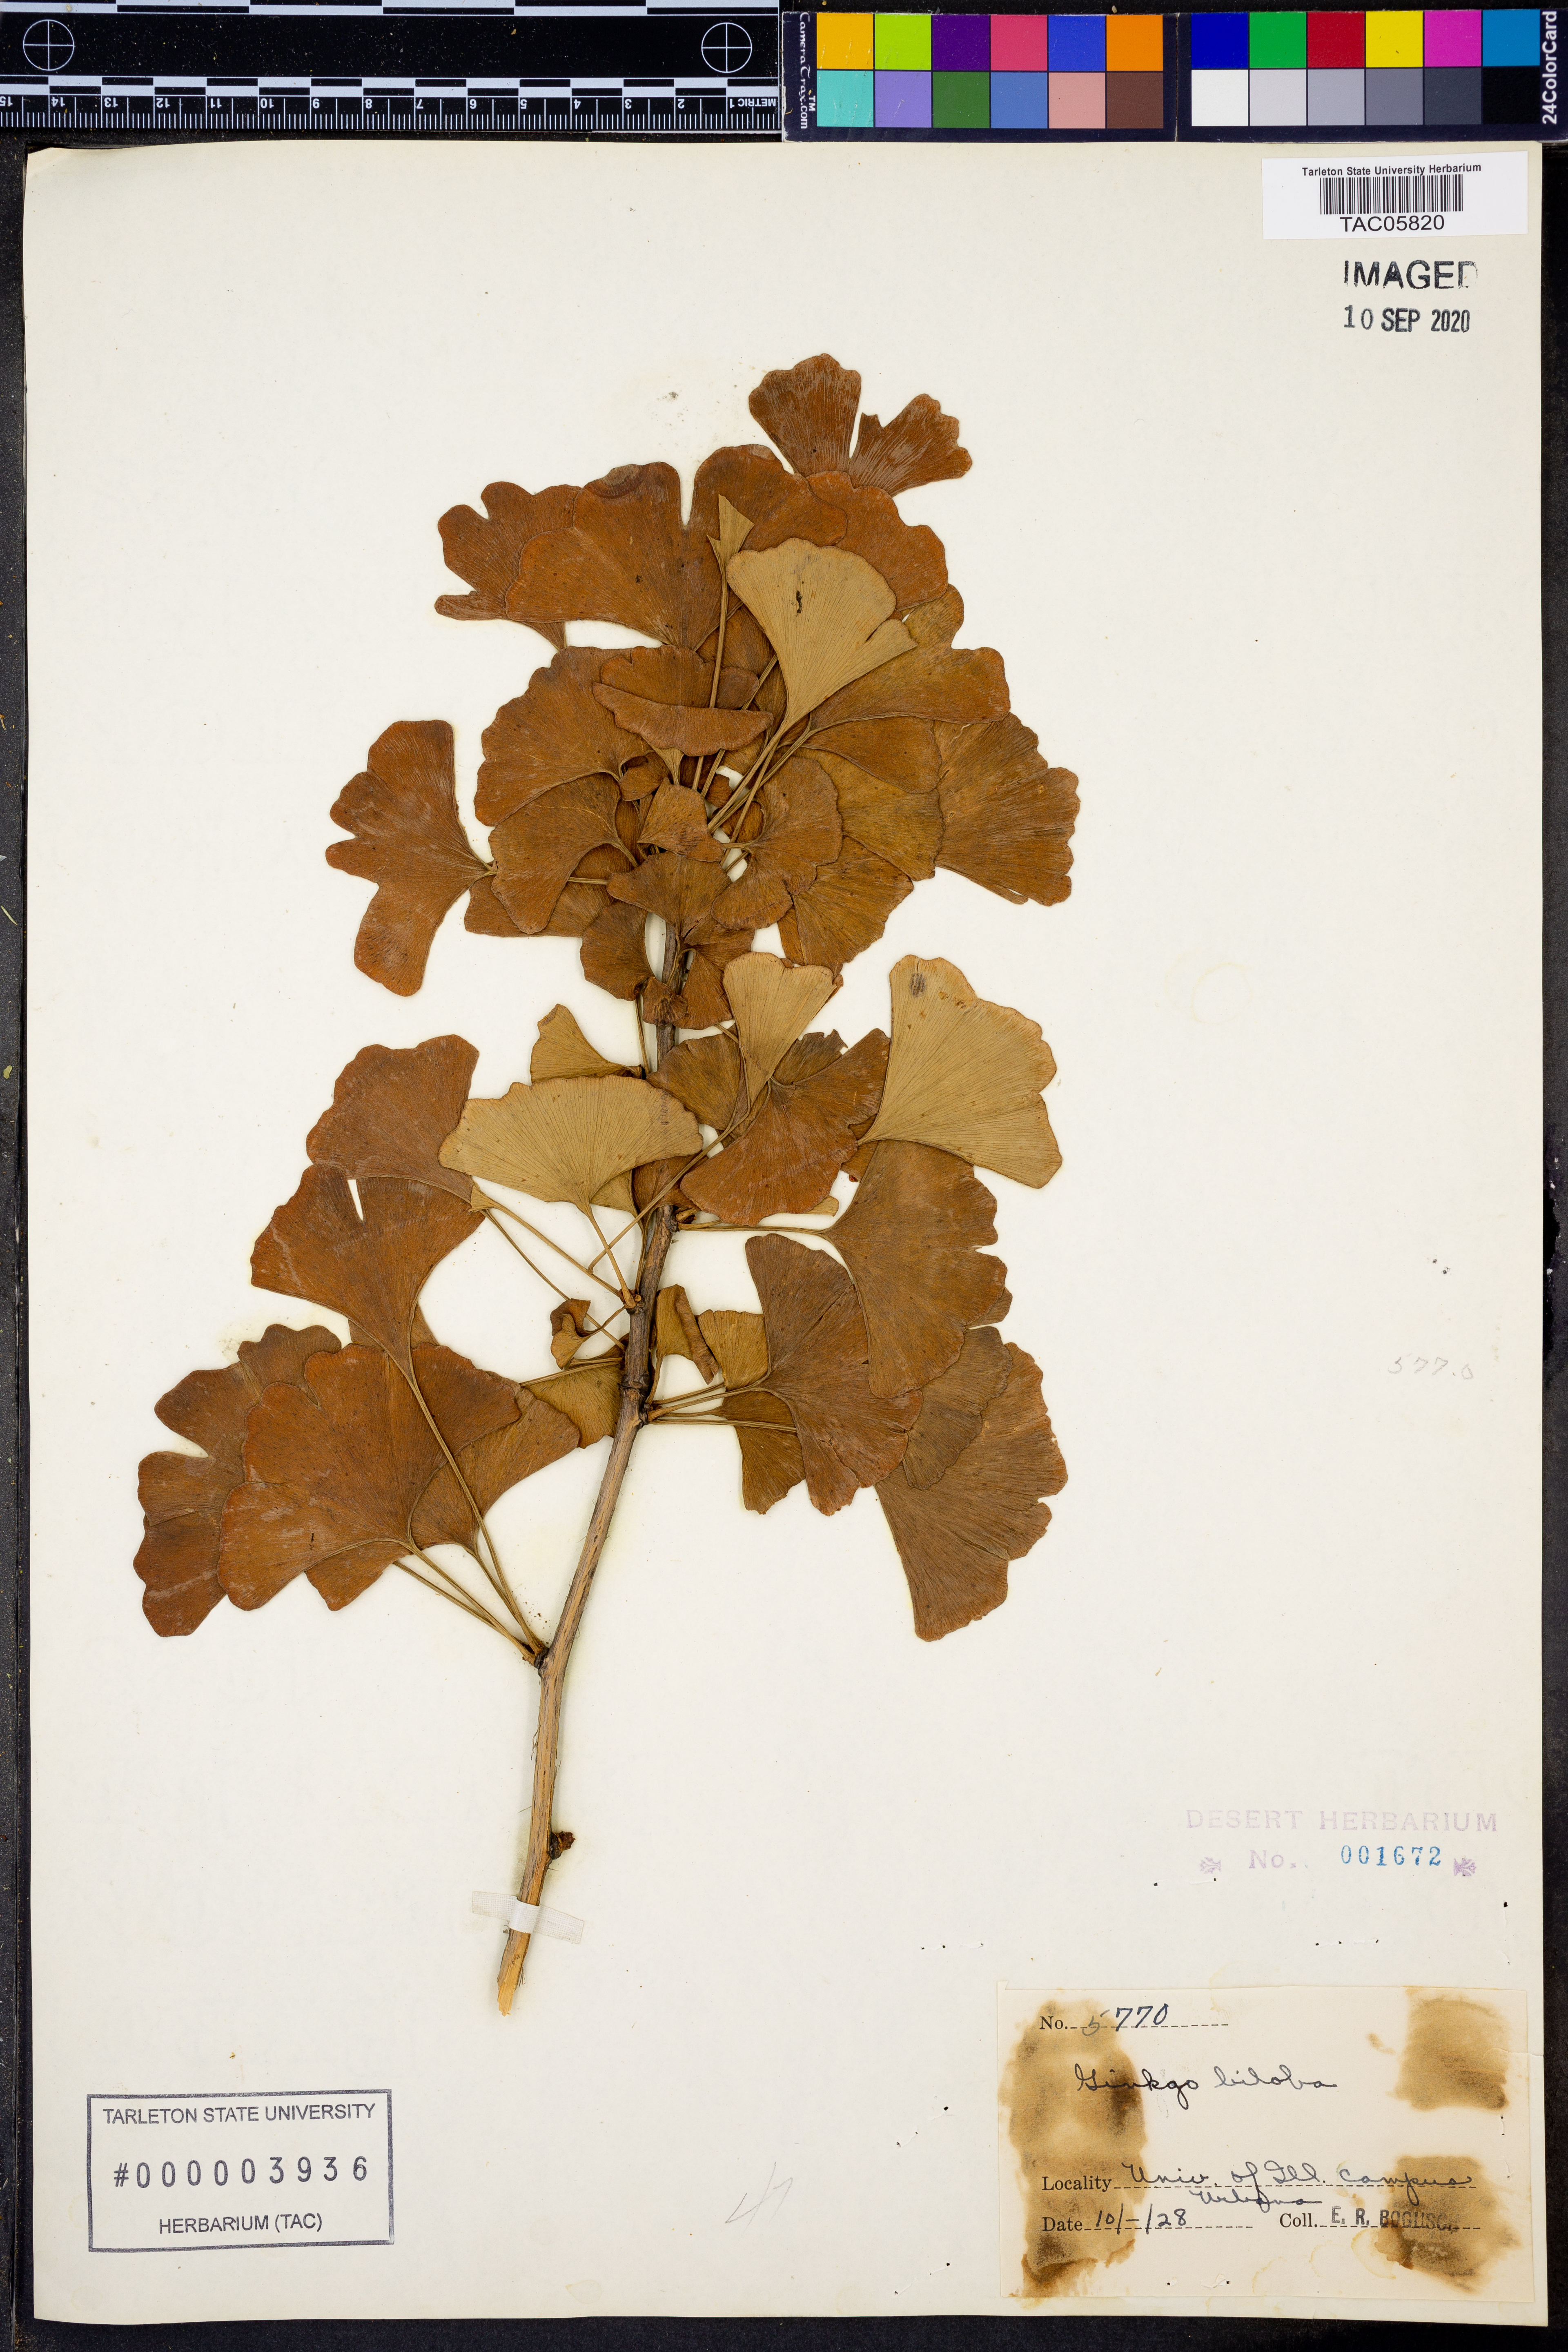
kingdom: Plantae
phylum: Tracheophyta
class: Ginkgoopsida
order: Ginkgoales
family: Ginkgoaceae
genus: Ginkgo
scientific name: Ginkgo biloba
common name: Ginkgo
